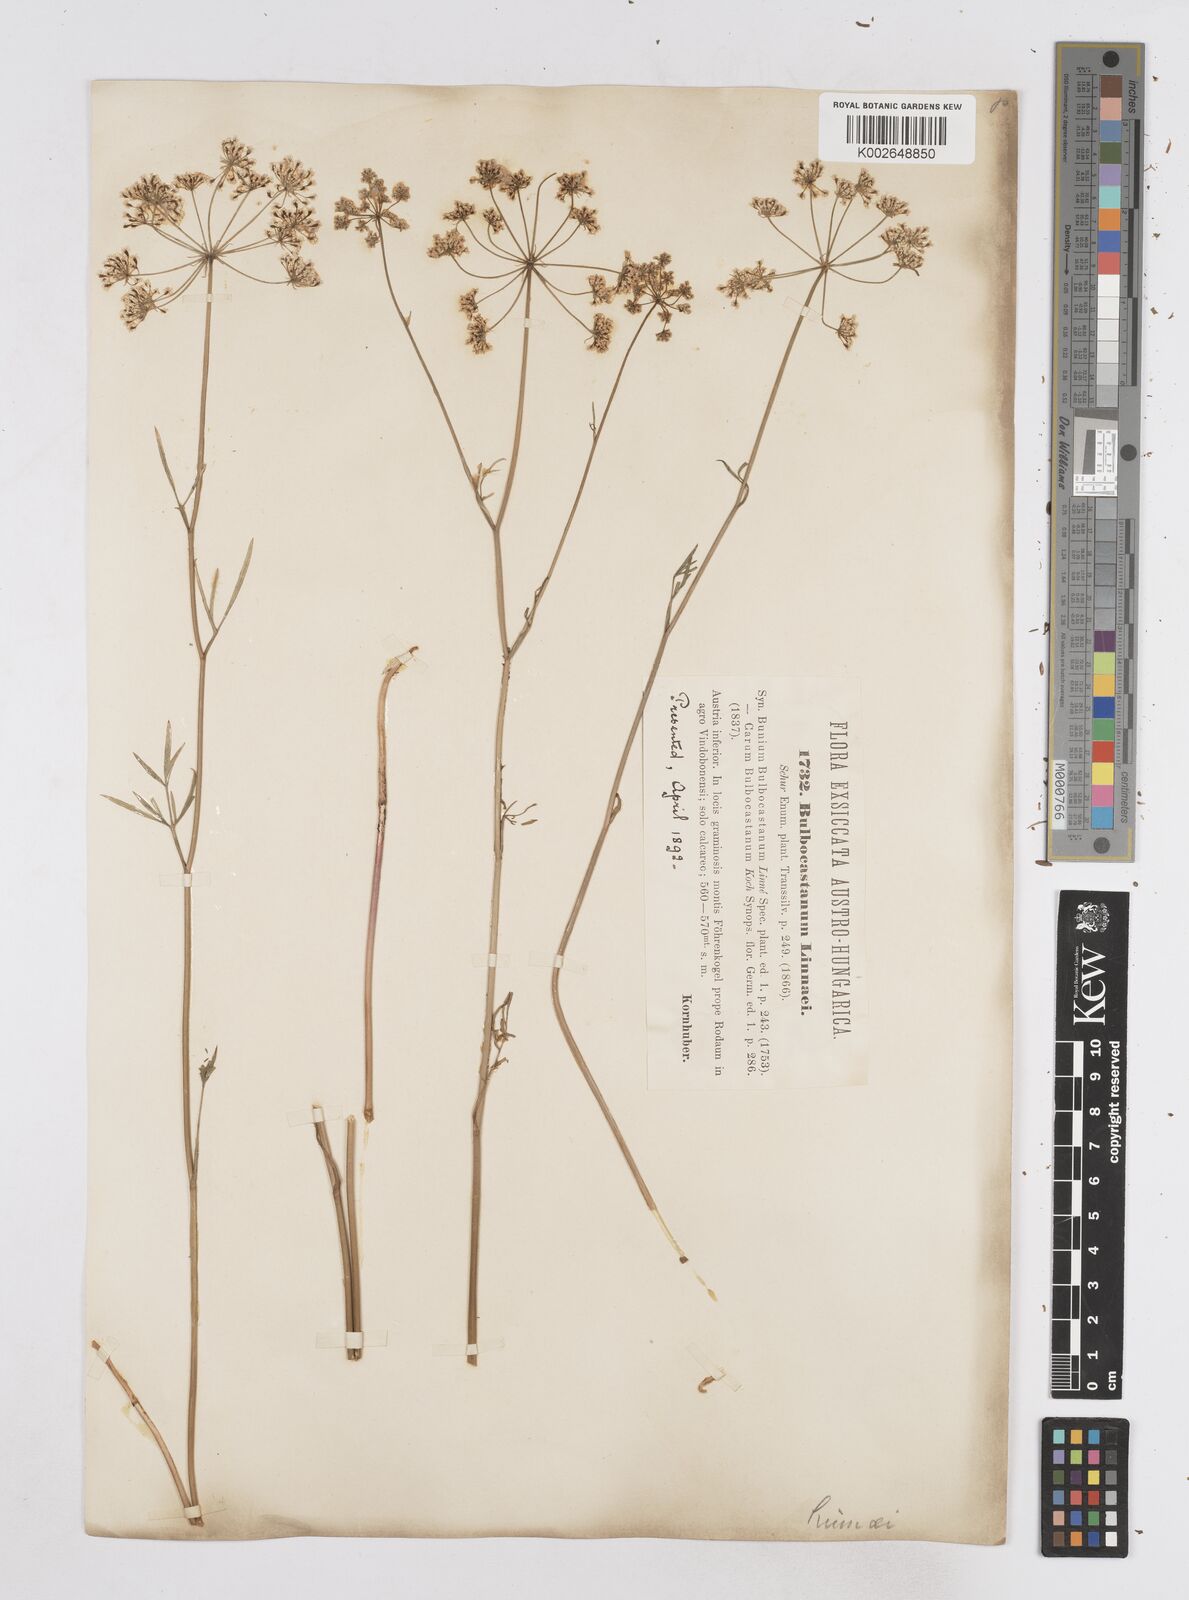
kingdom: Plantae
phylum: Tracheophyta
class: Magnoliopsida
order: Apiales
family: Apiaceae
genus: Bunium
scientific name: Bunium bulbocastanum
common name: Great pignut
